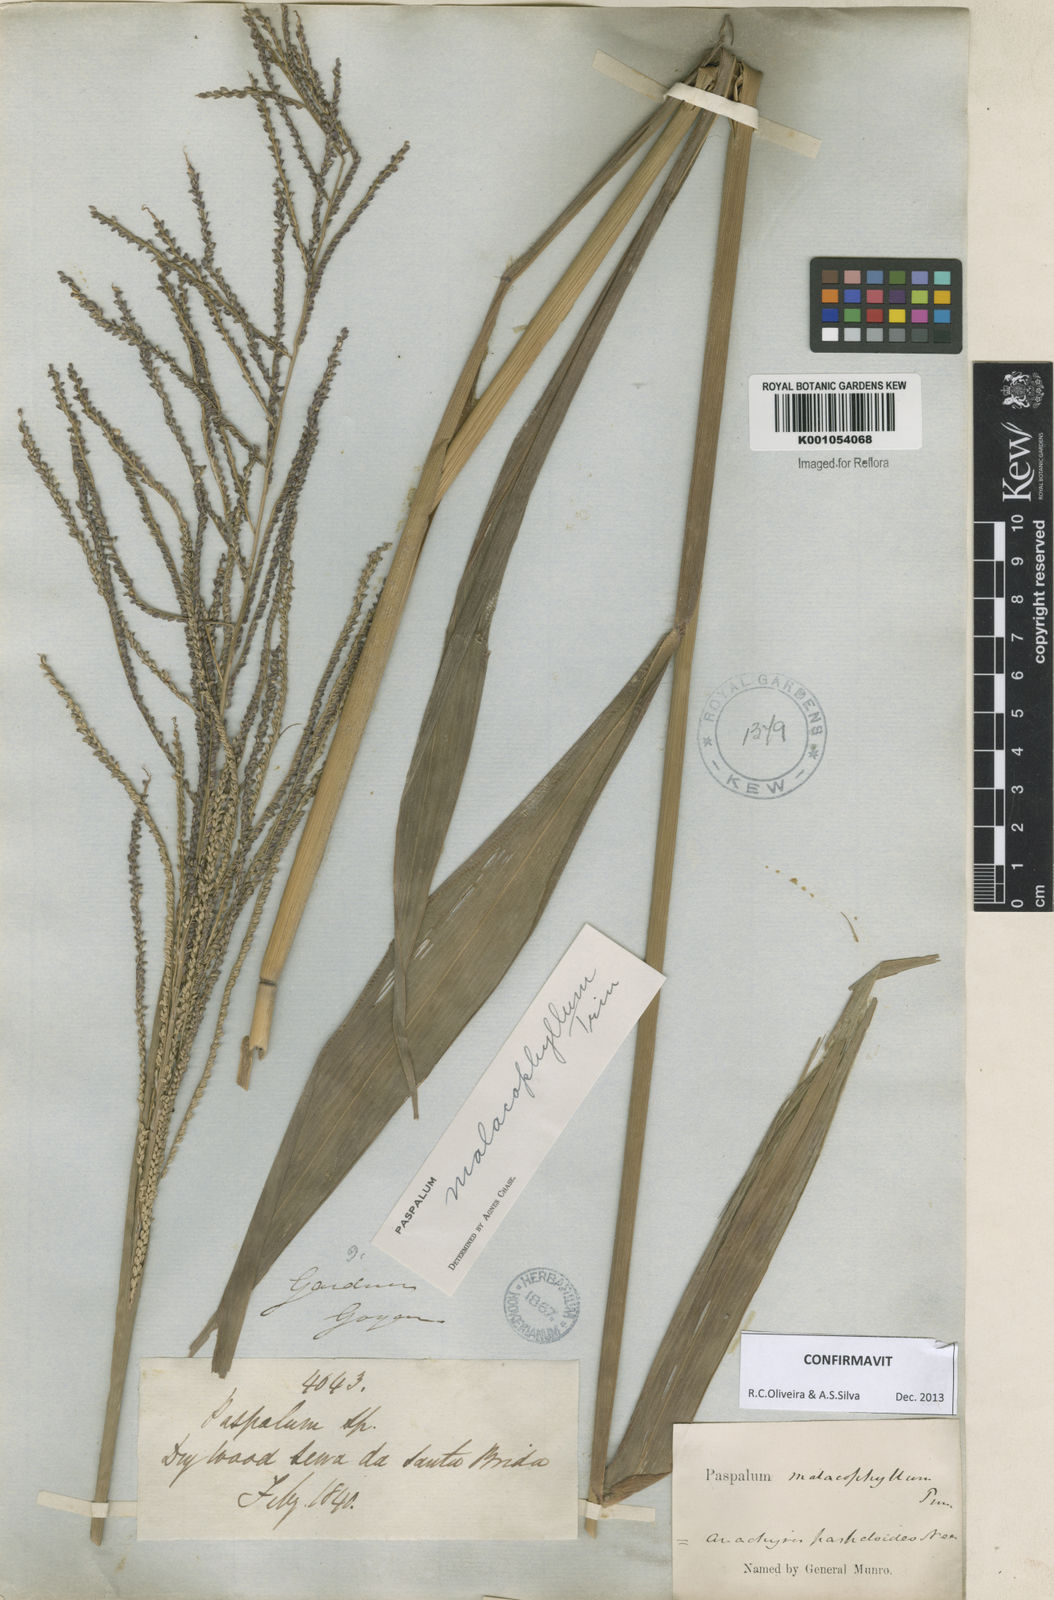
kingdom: Plantae
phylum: Tracheophyta
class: Liliopsida
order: Poales
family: Poaceae
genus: Paspalum
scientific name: Paspalum malacophyllum
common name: Ribbed paspalum
